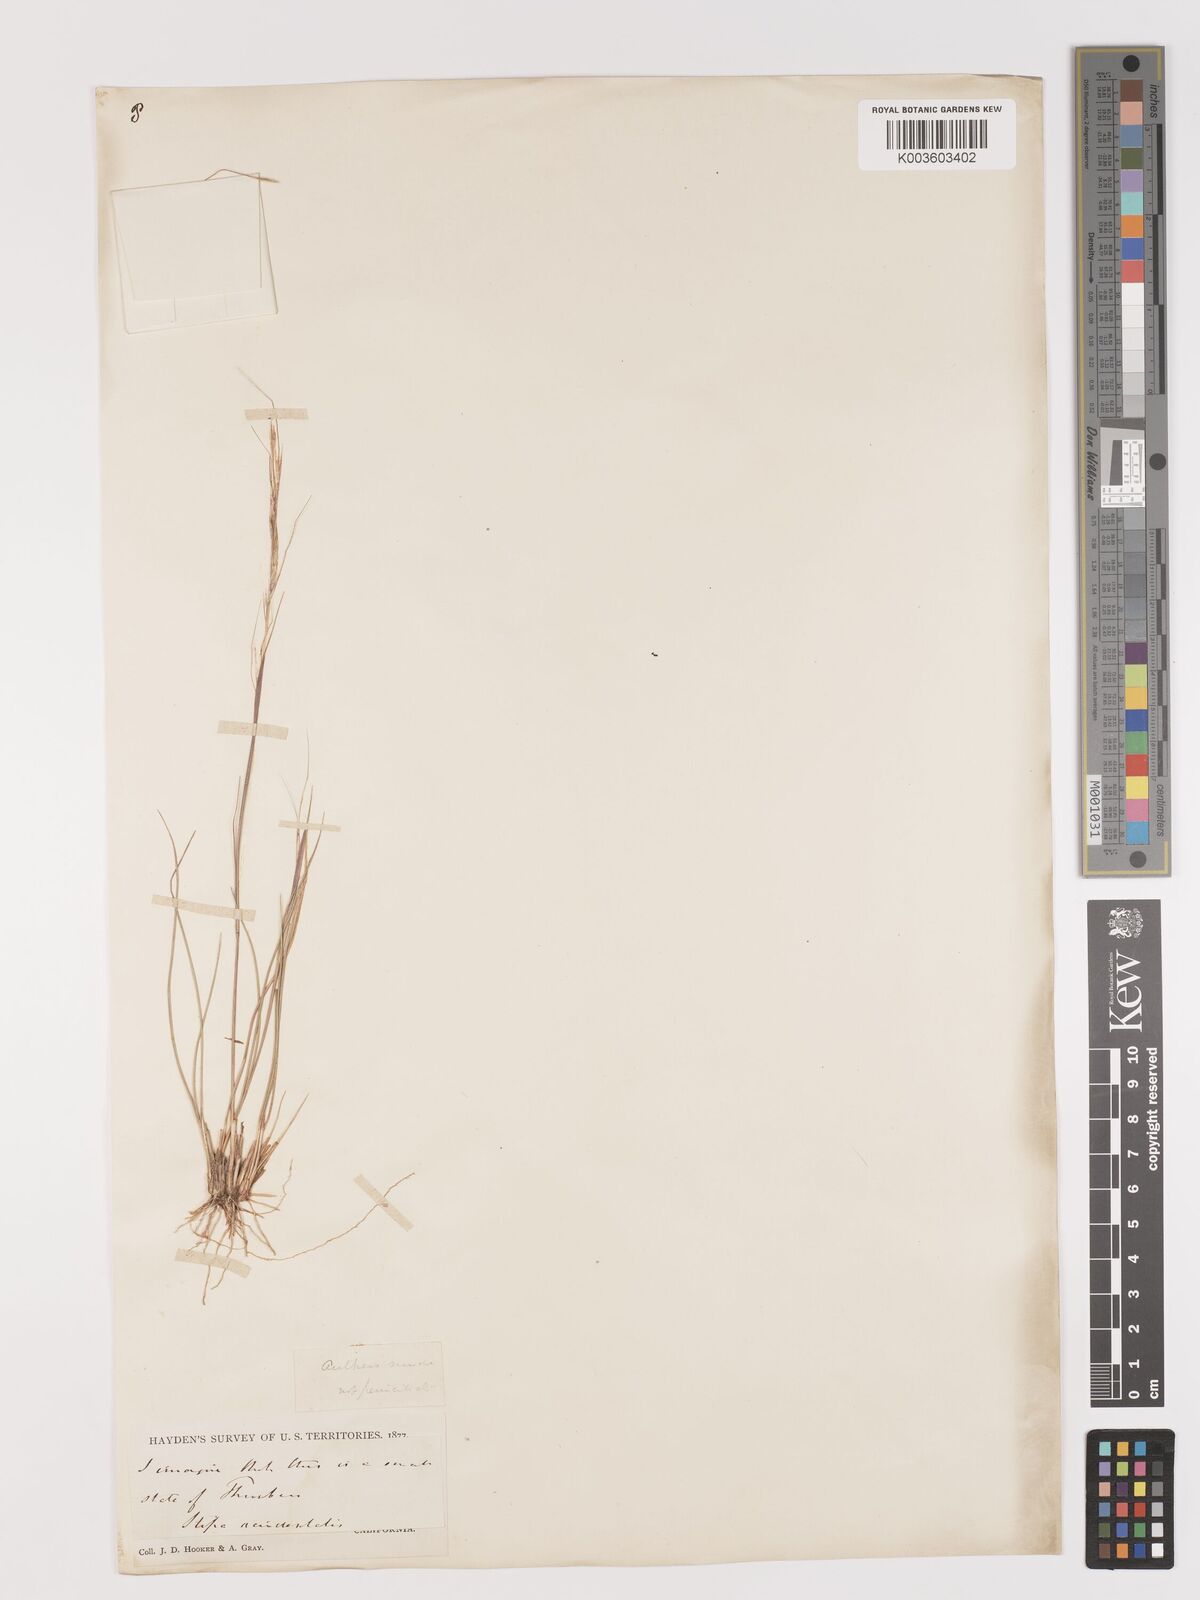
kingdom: Plantae
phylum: Tracheophyta
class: Liliopsida
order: Poales
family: Poaceae
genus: Eriocoma
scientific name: Eriocoma thurberiana
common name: Thurber's needlegrass
